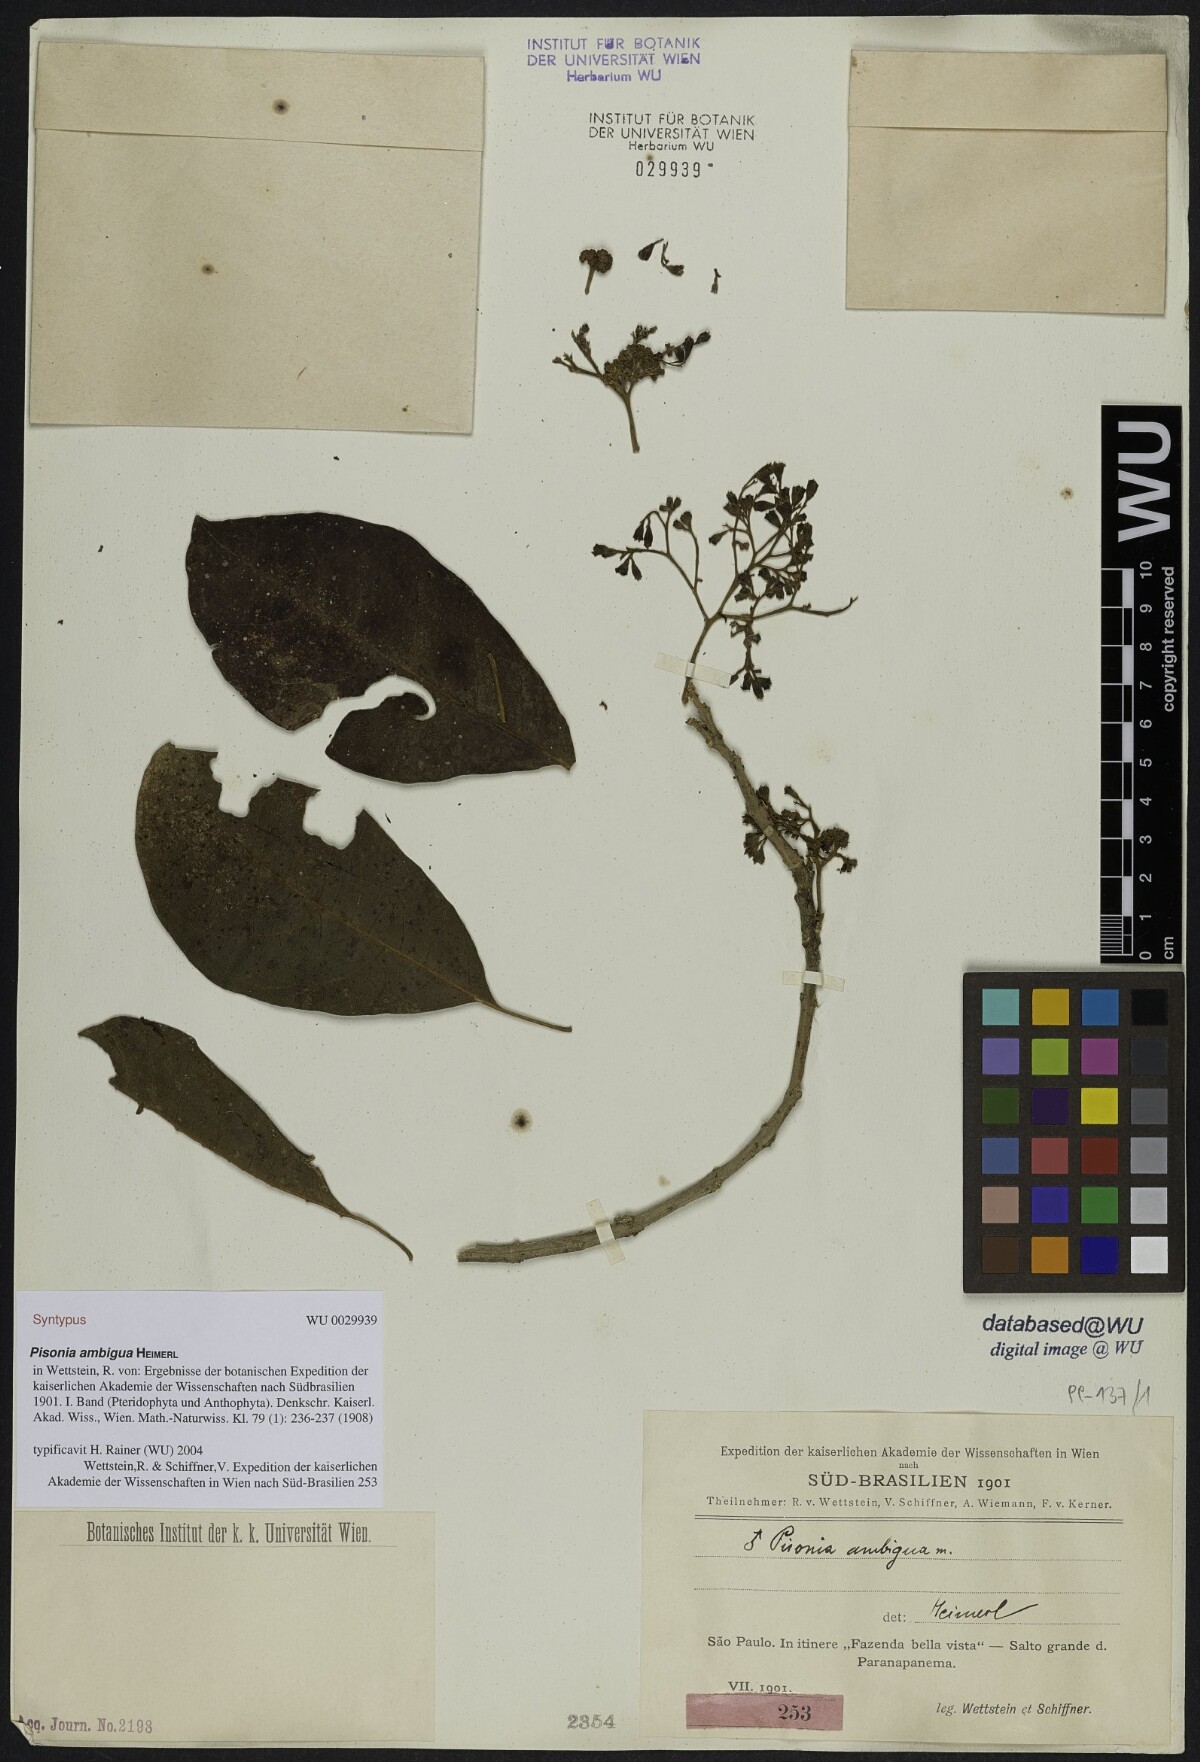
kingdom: Plantae
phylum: Tracheophyta
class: Magnoliopsida
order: Caryophyllales
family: Nyctaginaceae
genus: Pisonia
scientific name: Pisonia ambigua
